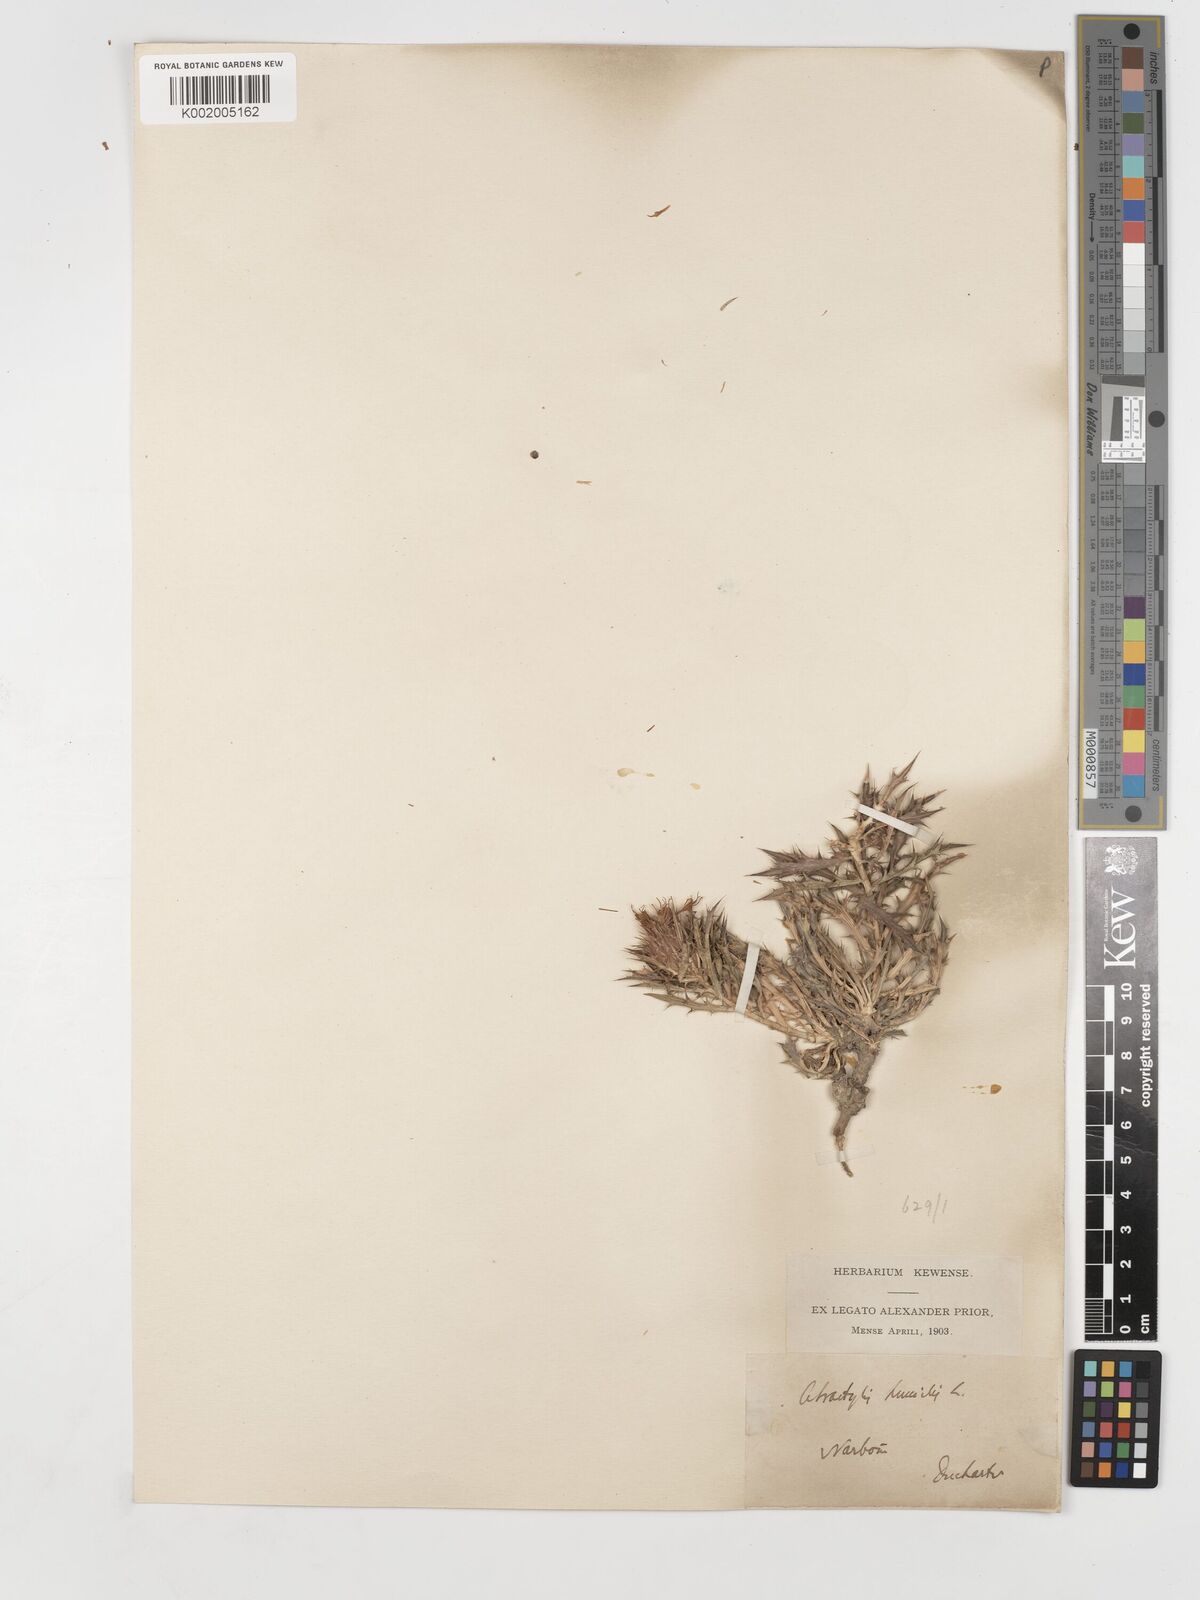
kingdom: Plantae
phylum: Tracheophyta
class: Magnoliopsida
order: Asterales
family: Asteraceae
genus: Atractylis
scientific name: Atractylis humilis
